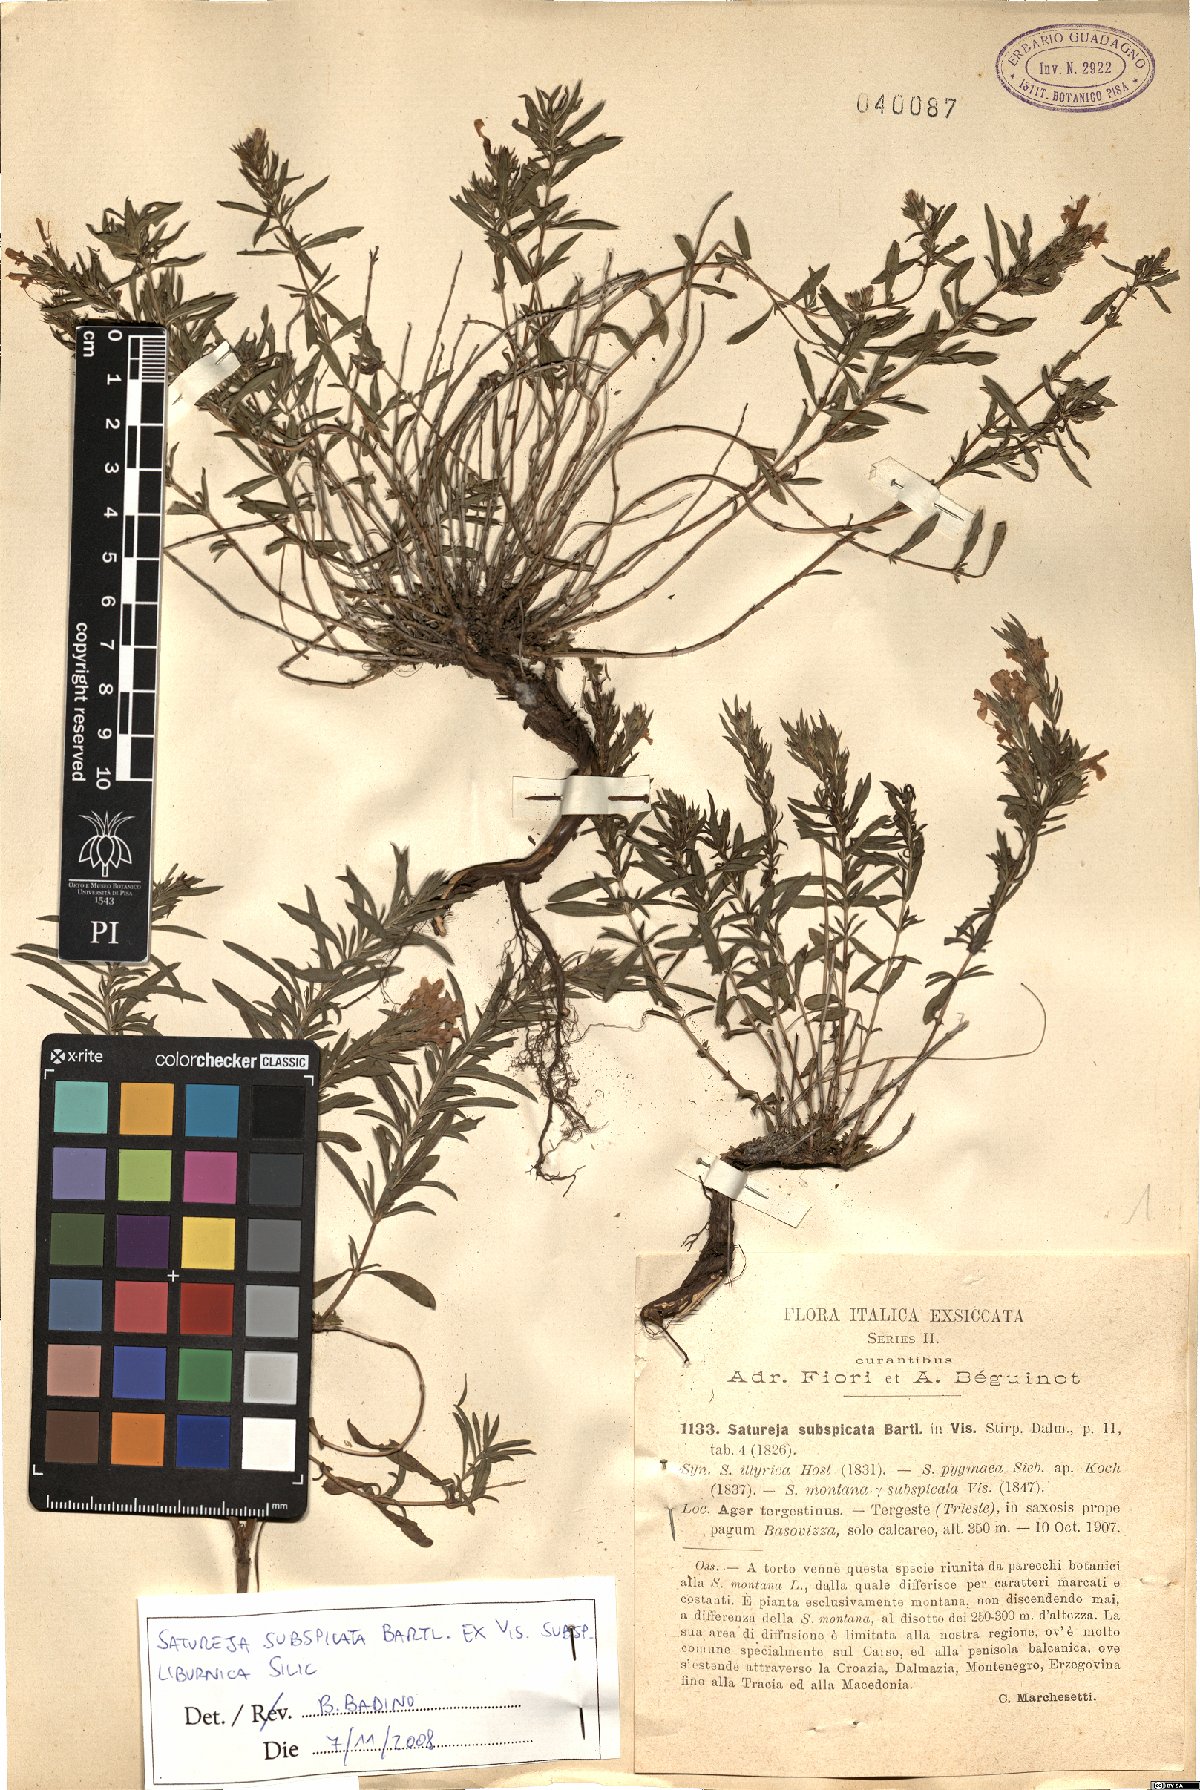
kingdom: Plantae
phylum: Tracheophyta
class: Magnoliopsida
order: Lamiales
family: Lamiaceae
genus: Satureja
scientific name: Satureja subspicata
